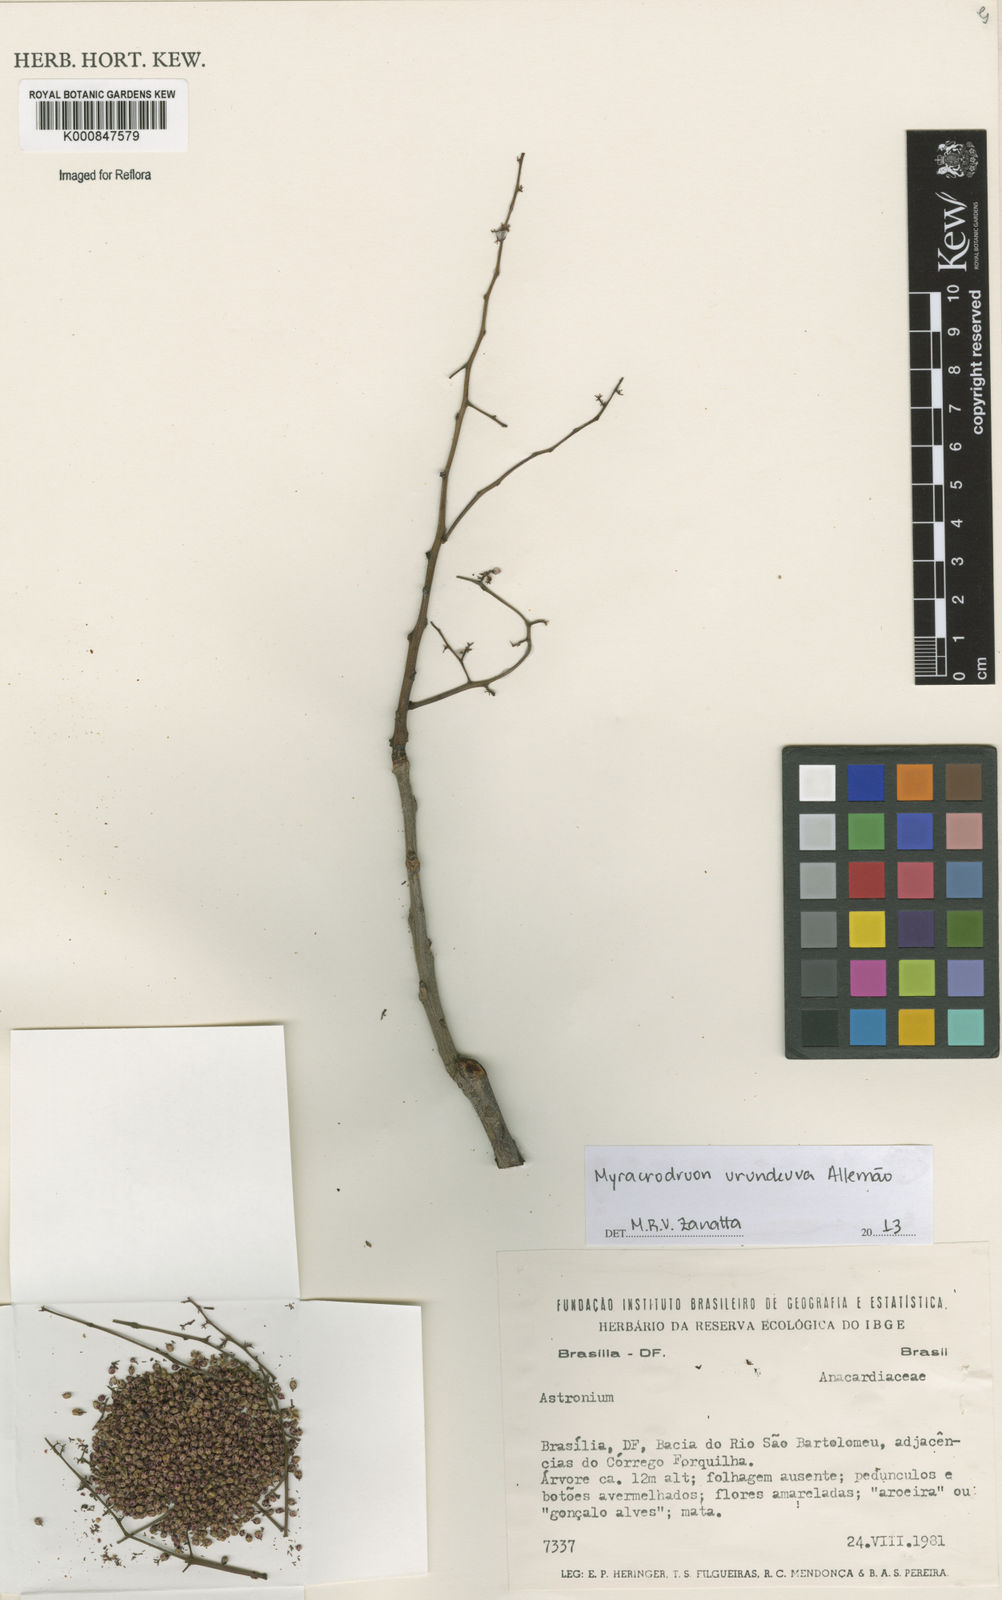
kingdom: Plantae
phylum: Tracheophyta
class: Magnoliopsida
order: Sapindales
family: Anacardiaceae
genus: Astronium
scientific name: Astronium
